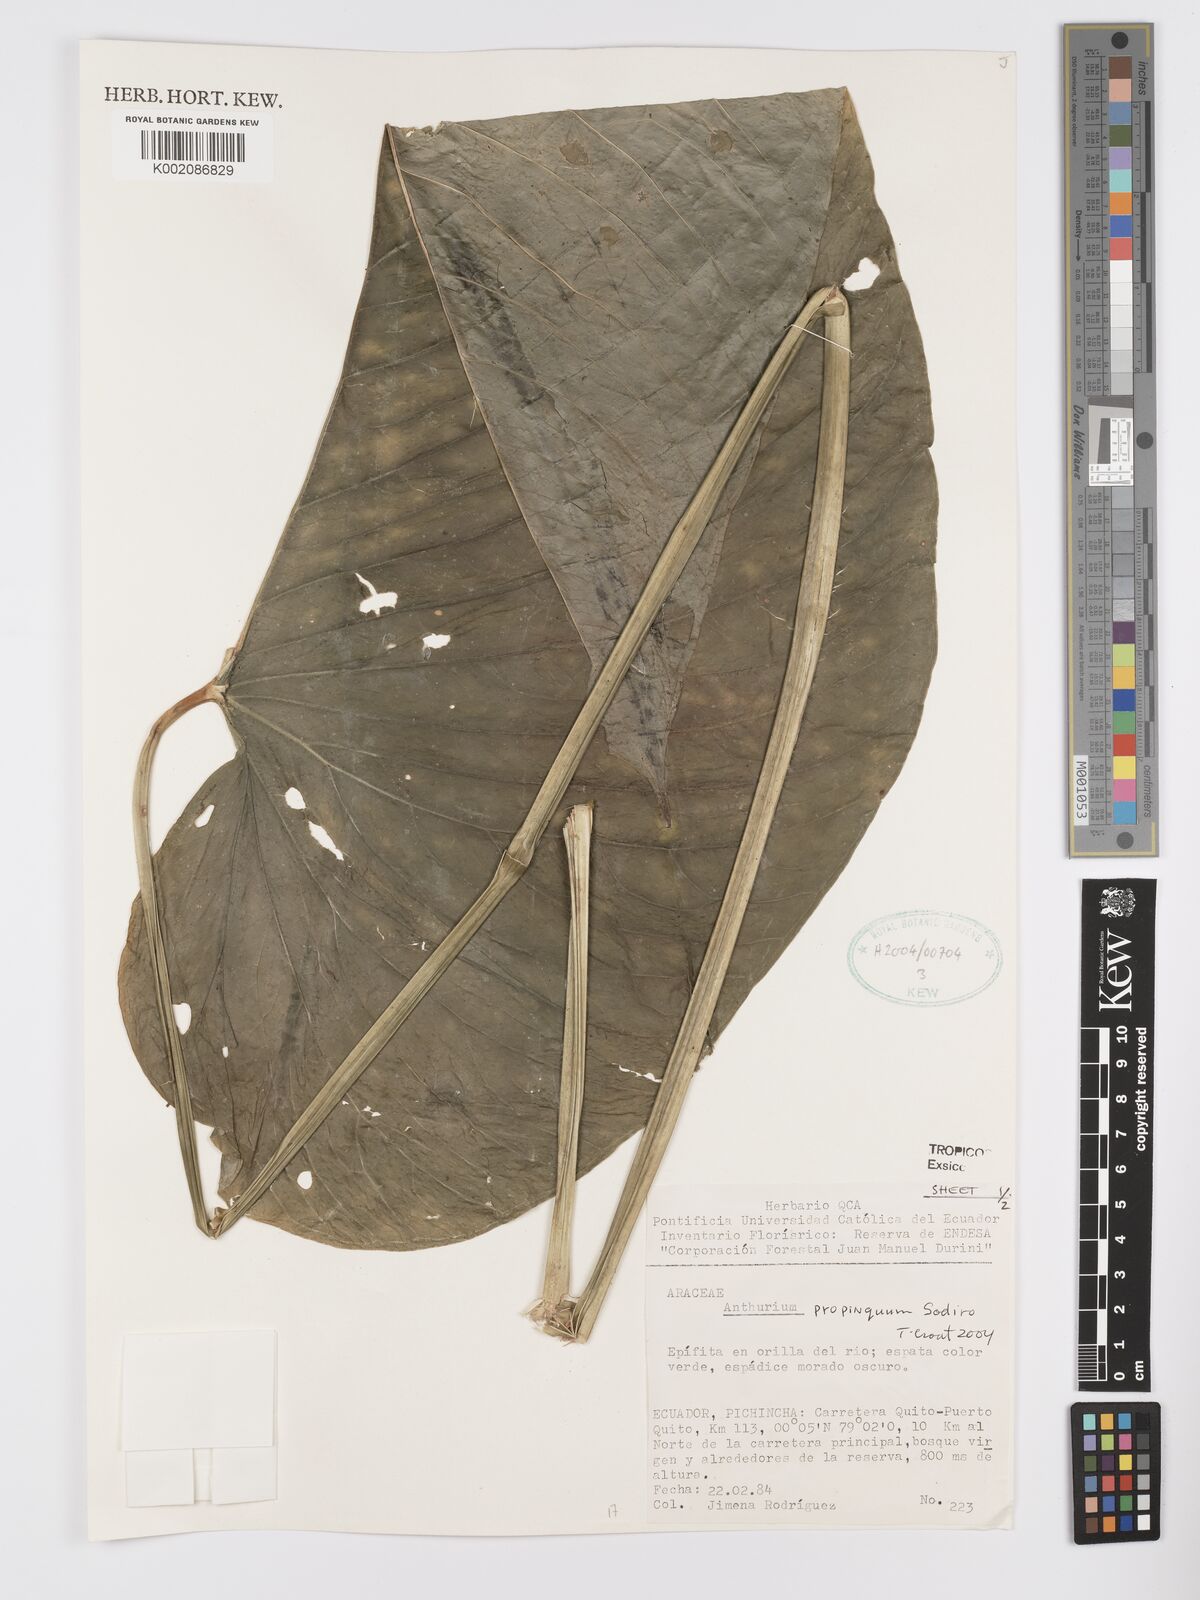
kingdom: Plantae
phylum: Tracheophyta
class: Liliopsida
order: Alismatales
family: Araceae
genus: Anthurium
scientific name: Anthurium cuspidatum
